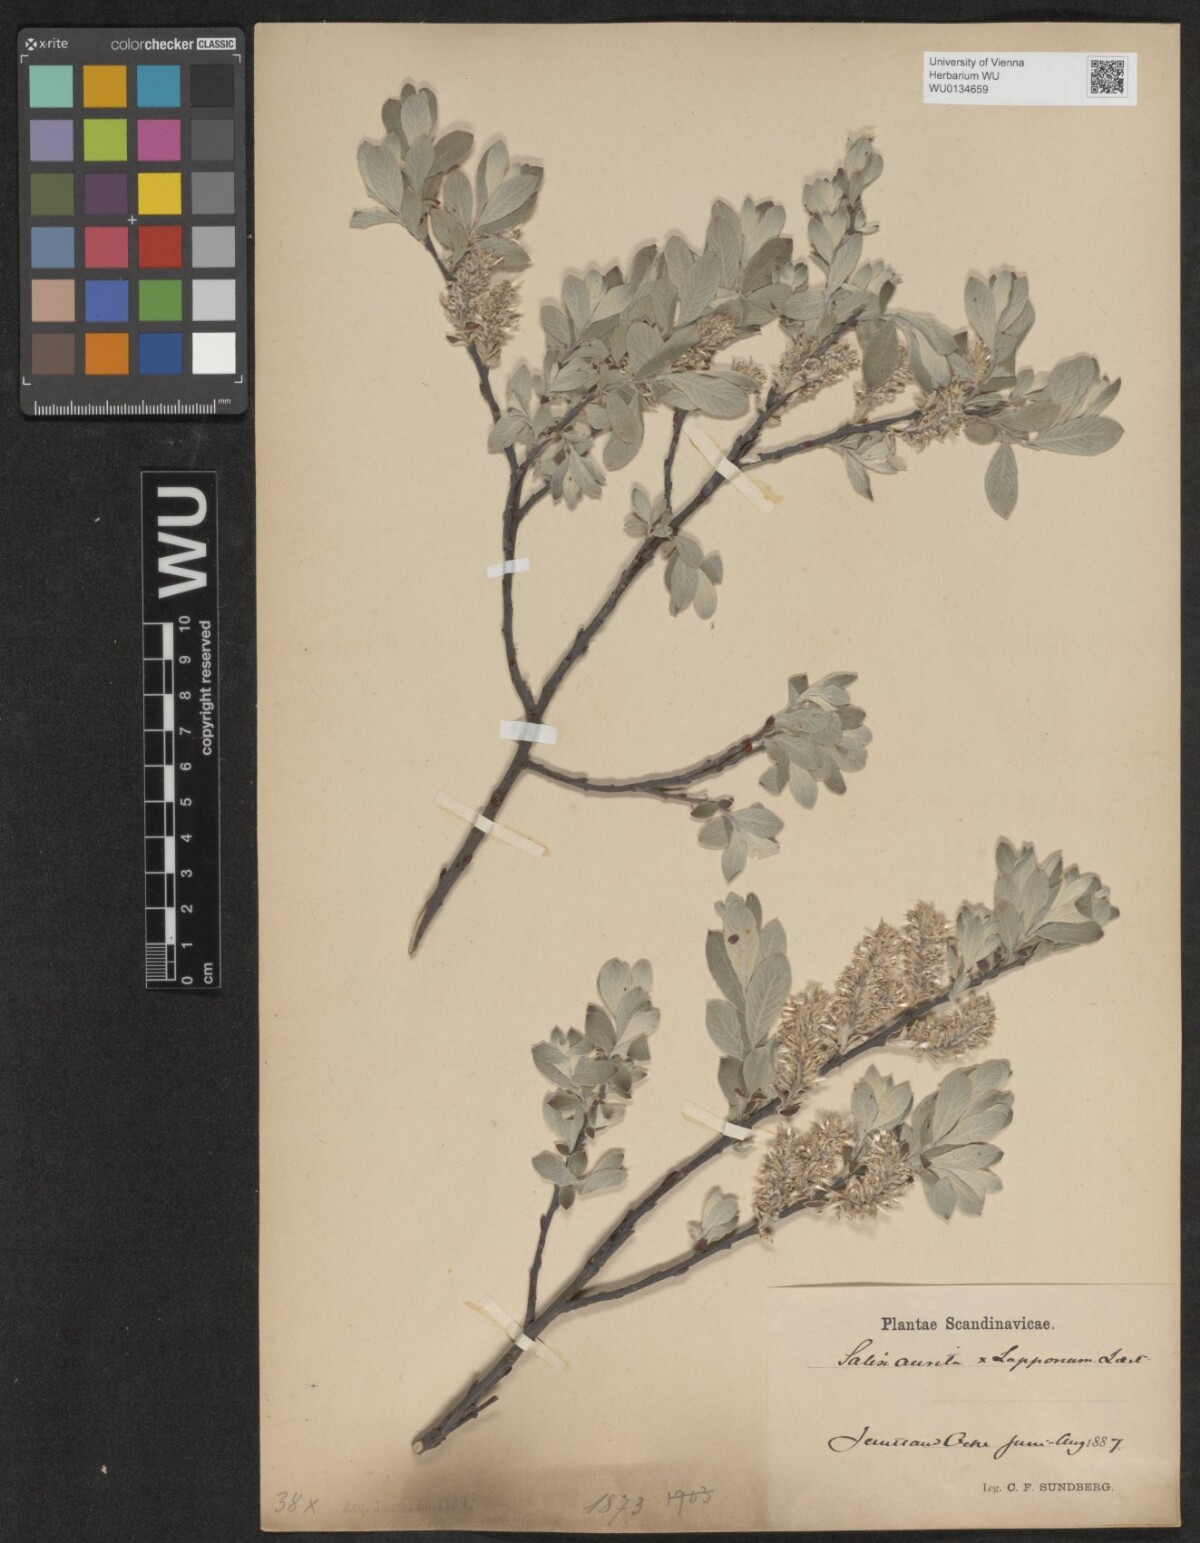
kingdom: Plantae
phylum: Tracheophyta
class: Magnoliopsida
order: Malpighiales
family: Salicaceae
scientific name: Salicaceae
